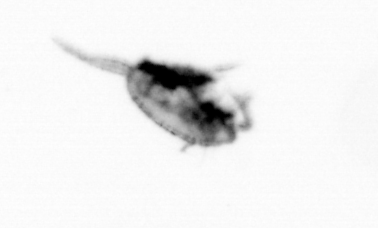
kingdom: Animalia
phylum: Arthropoda
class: Copepoda
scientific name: Copepoda
